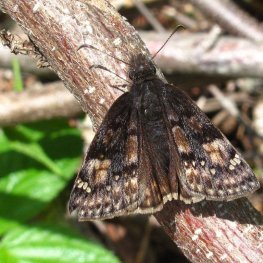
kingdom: Animalia
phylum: Arthropoda
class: Insecta
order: Lepidoptera
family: Hesperiidae
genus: Gesta
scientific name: Gesta
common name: Juvenal's Duskywing
